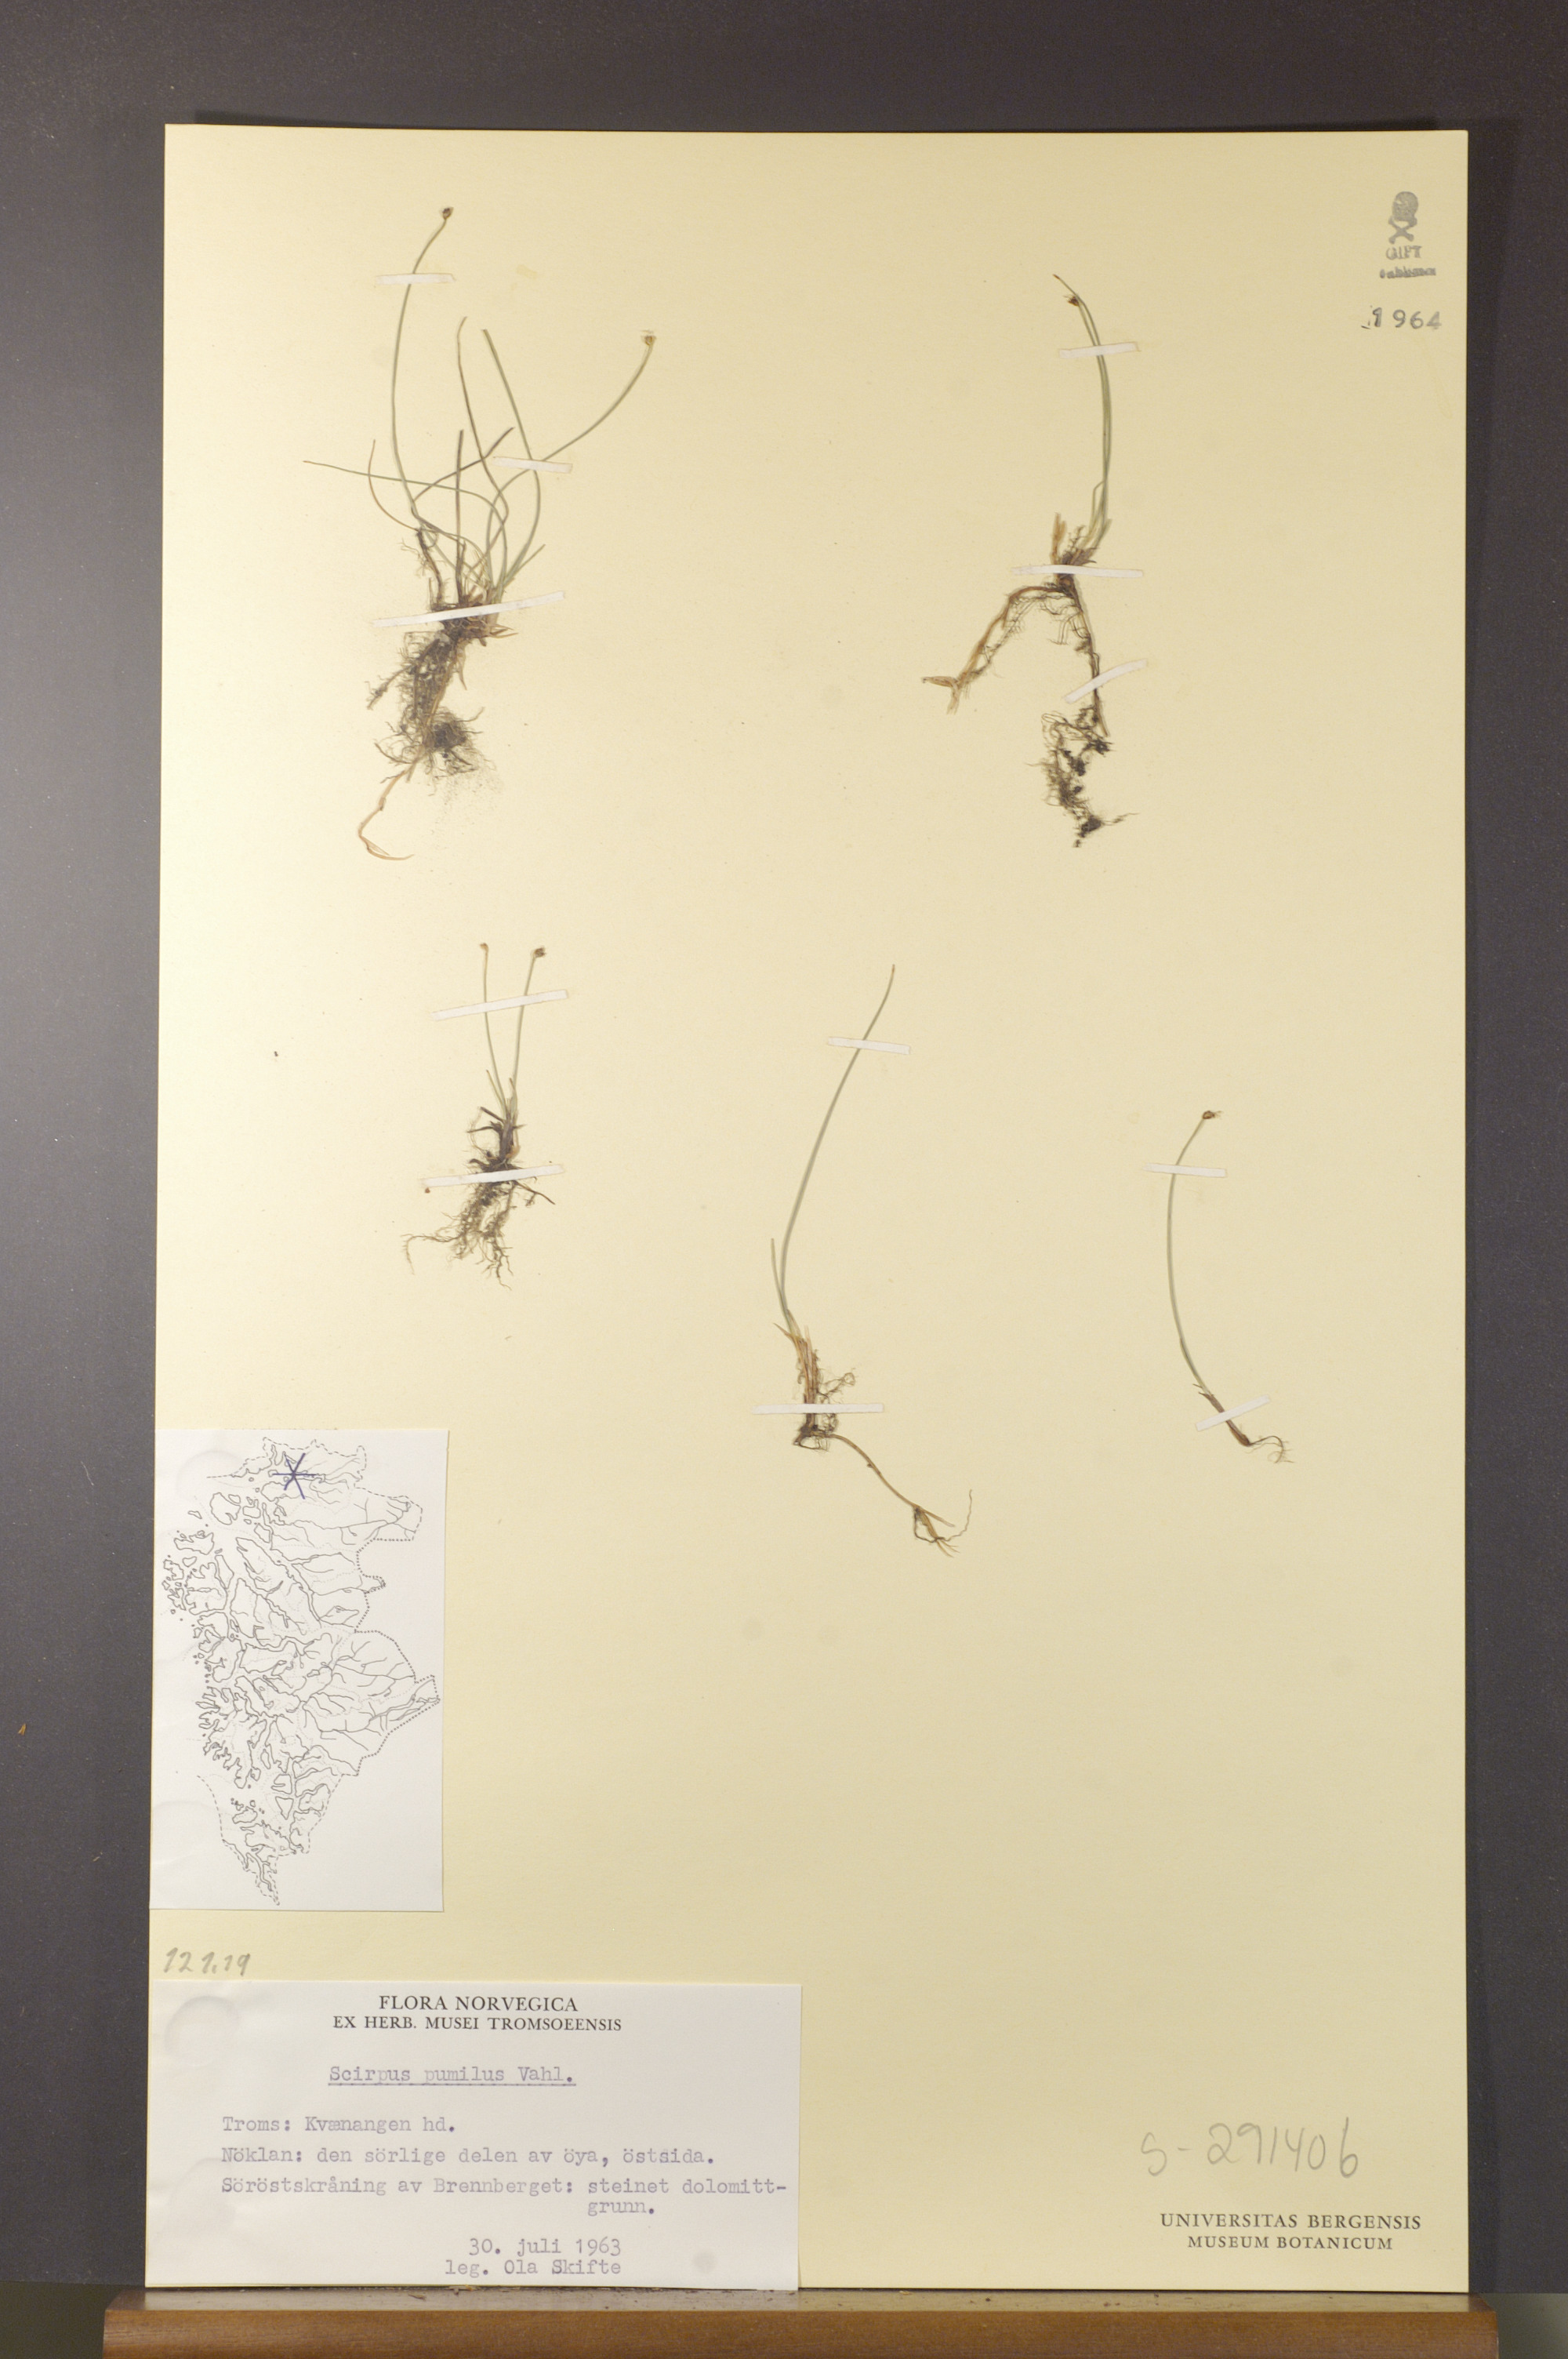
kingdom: Plantae
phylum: Tracheophyta
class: Liliopsida
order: Poales
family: Cyperaceae
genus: Trichophorum
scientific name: Trichophorum pumilum
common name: Rolland's bulrush
